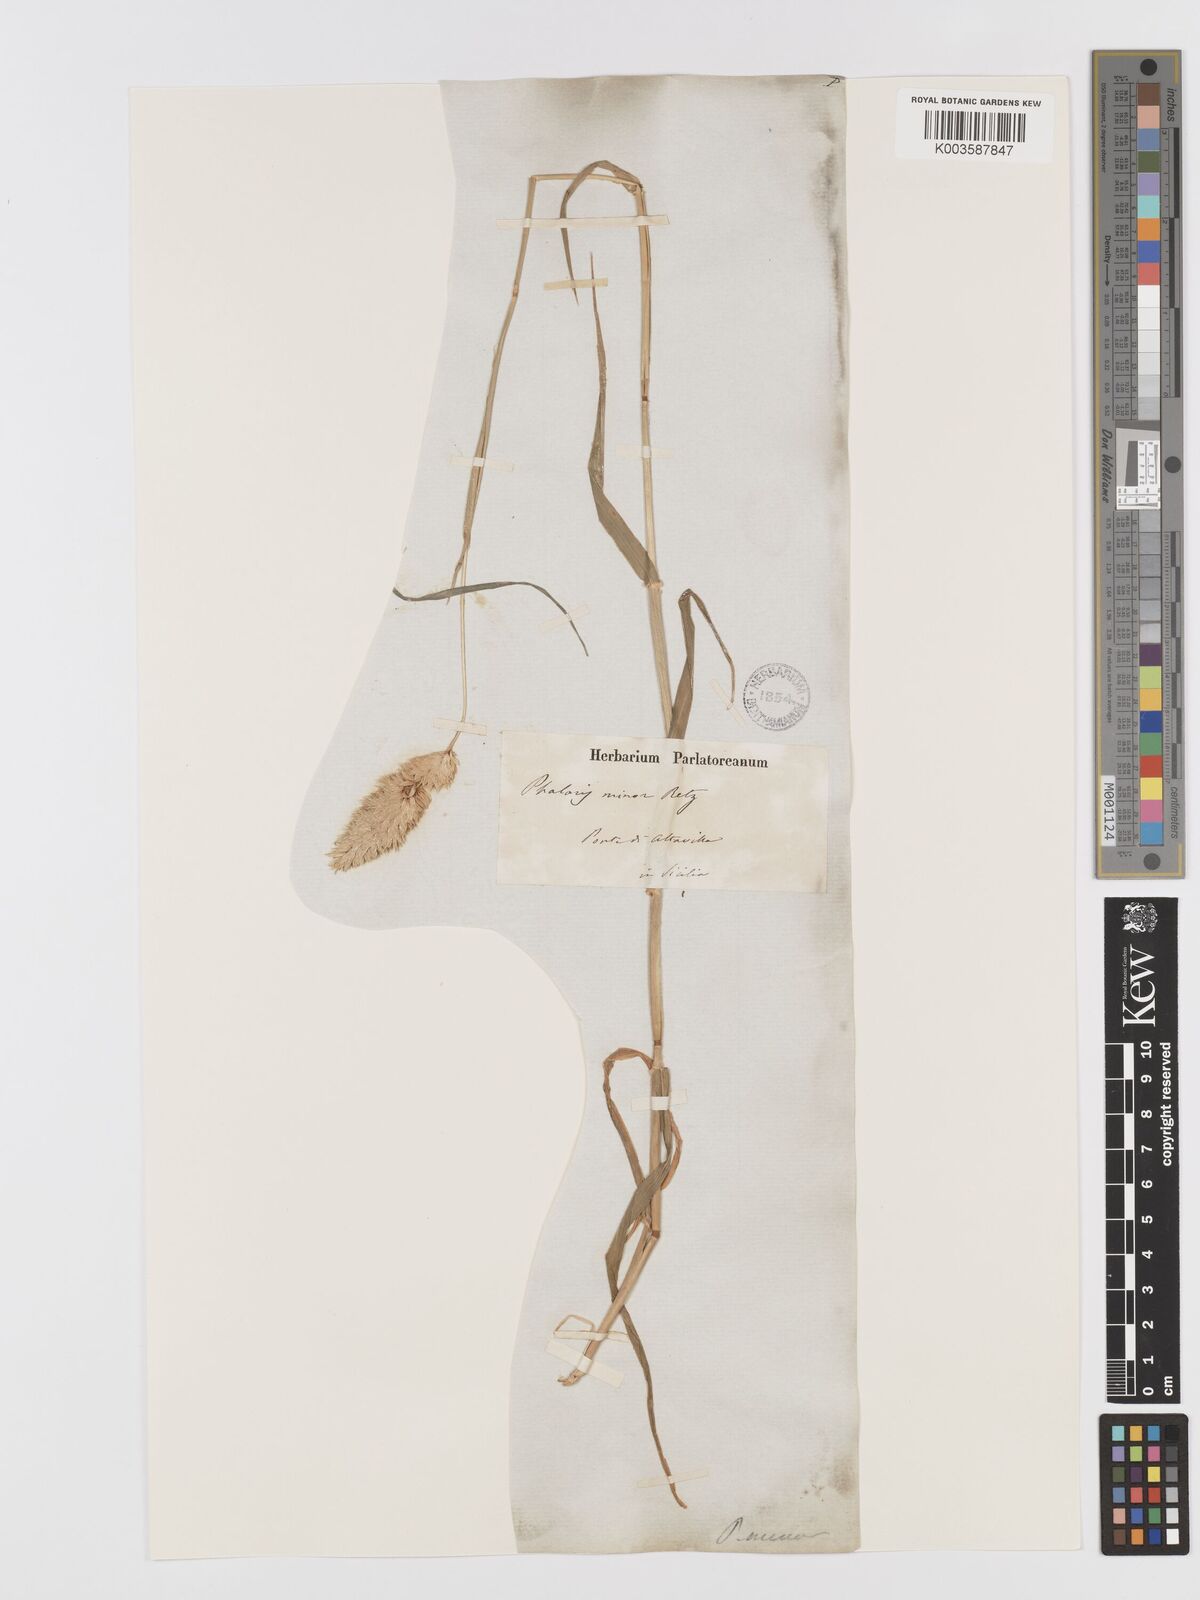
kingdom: Plantae
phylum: Tracheophyta
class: Liliopsida
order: Poales
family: Poaceae
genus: Phalaris
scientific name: Phalaris minor
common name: Littleseed canarygrass
